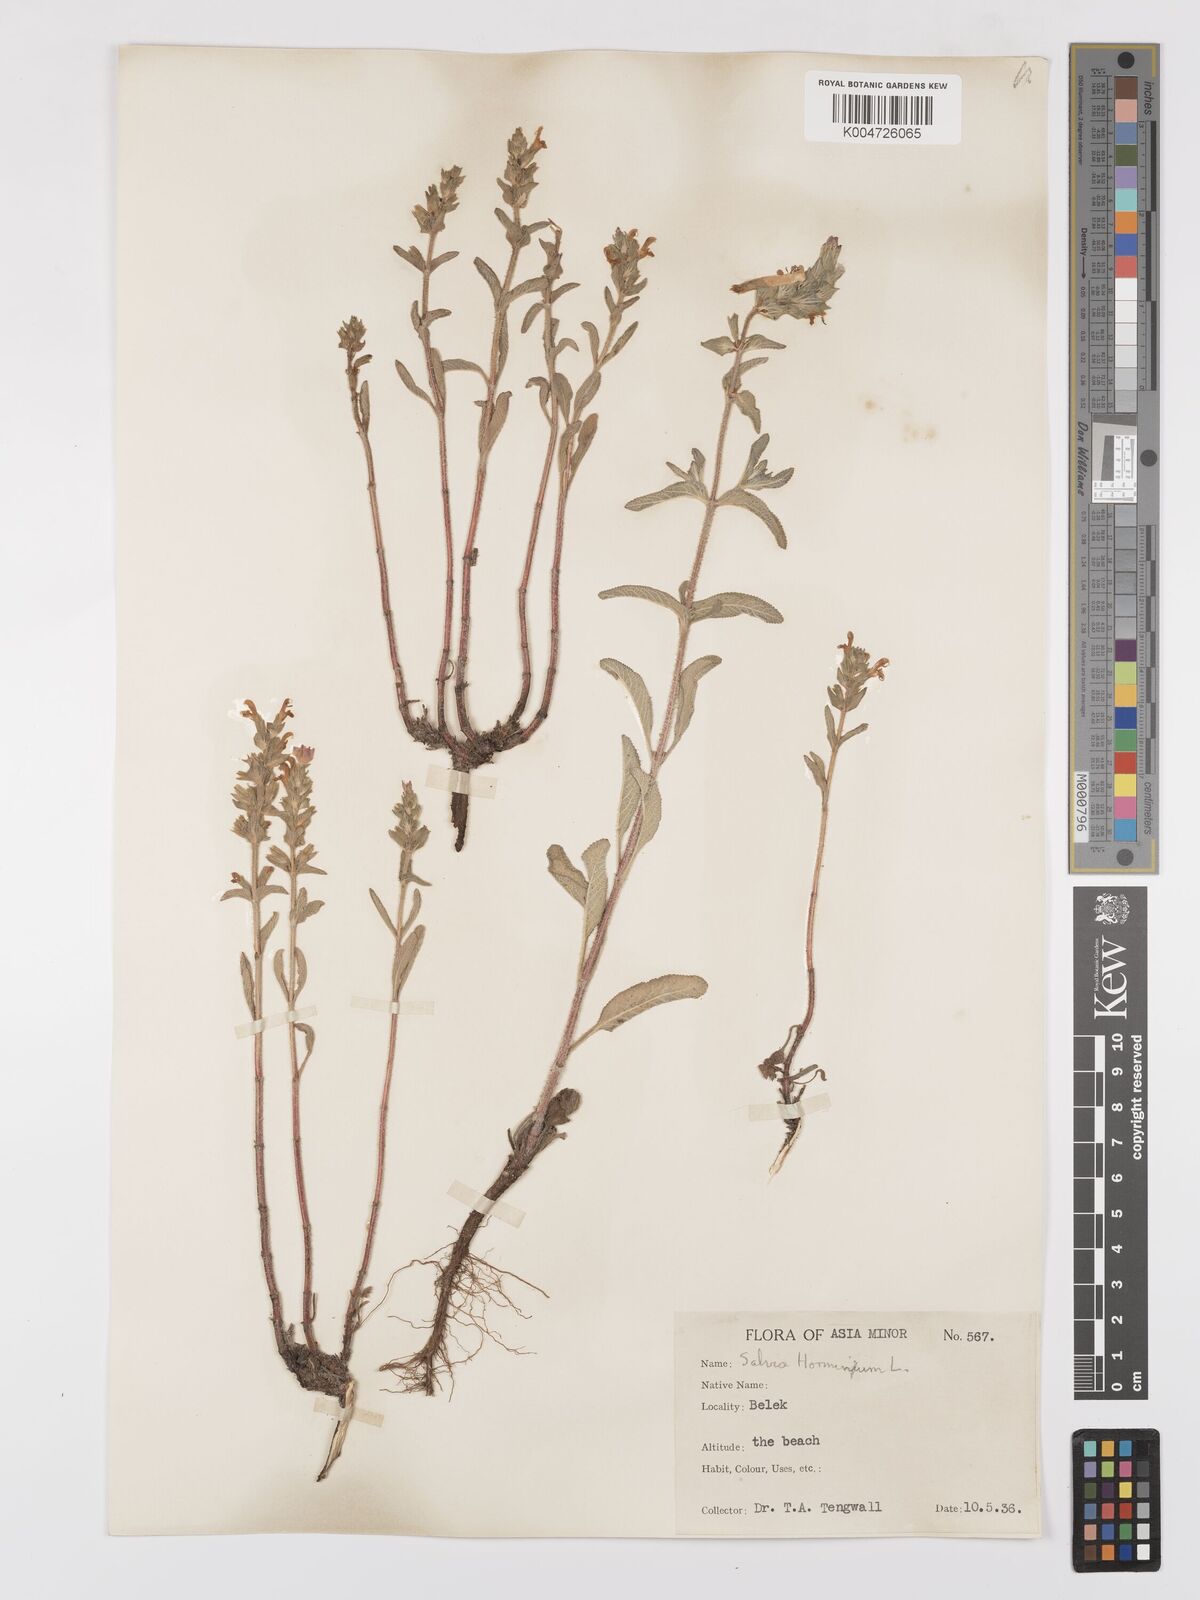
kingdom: Plantae
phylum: Tracheophyta
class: Magnoliopsida
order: Lamiales
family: Lamiaceae
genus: Salvia
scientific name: Salvia viridis
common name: Annual clary
